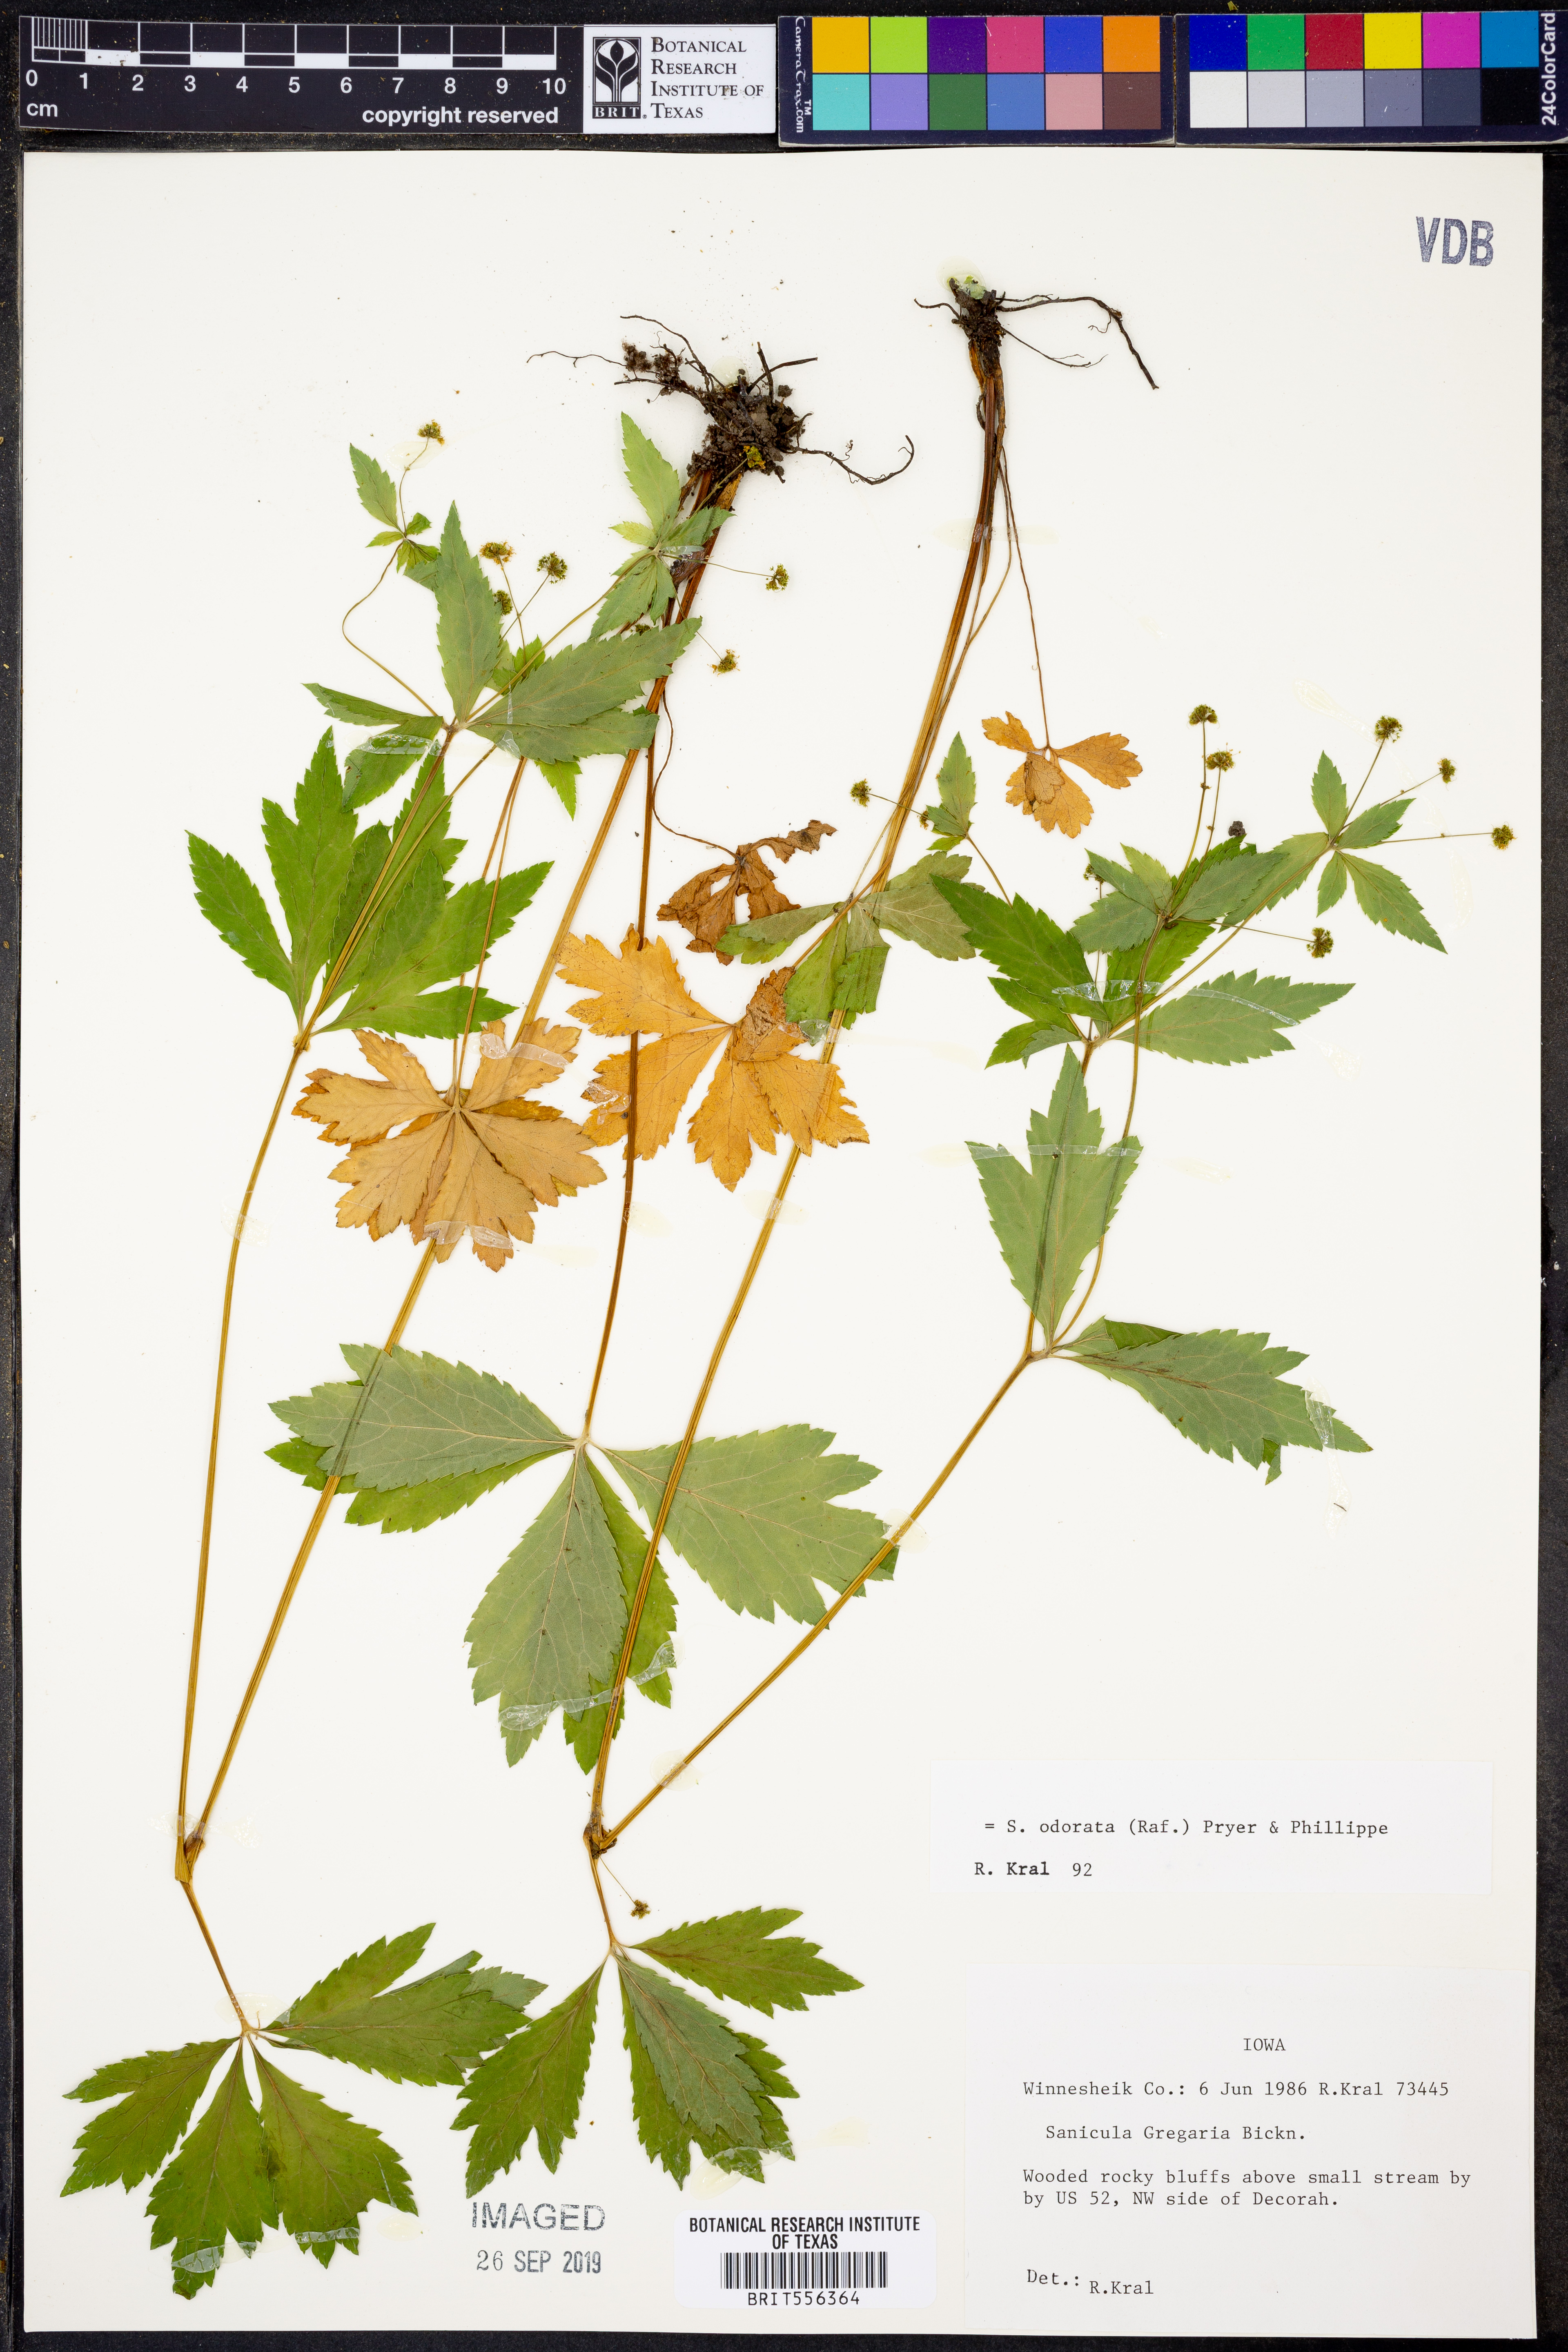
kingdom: Plantae
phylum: Tracheophyta
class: Magnoliopsida
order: Apiales
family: Apiaceae
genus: Sanicula
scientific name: Sanicula odorata
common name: Cluster sanicle
